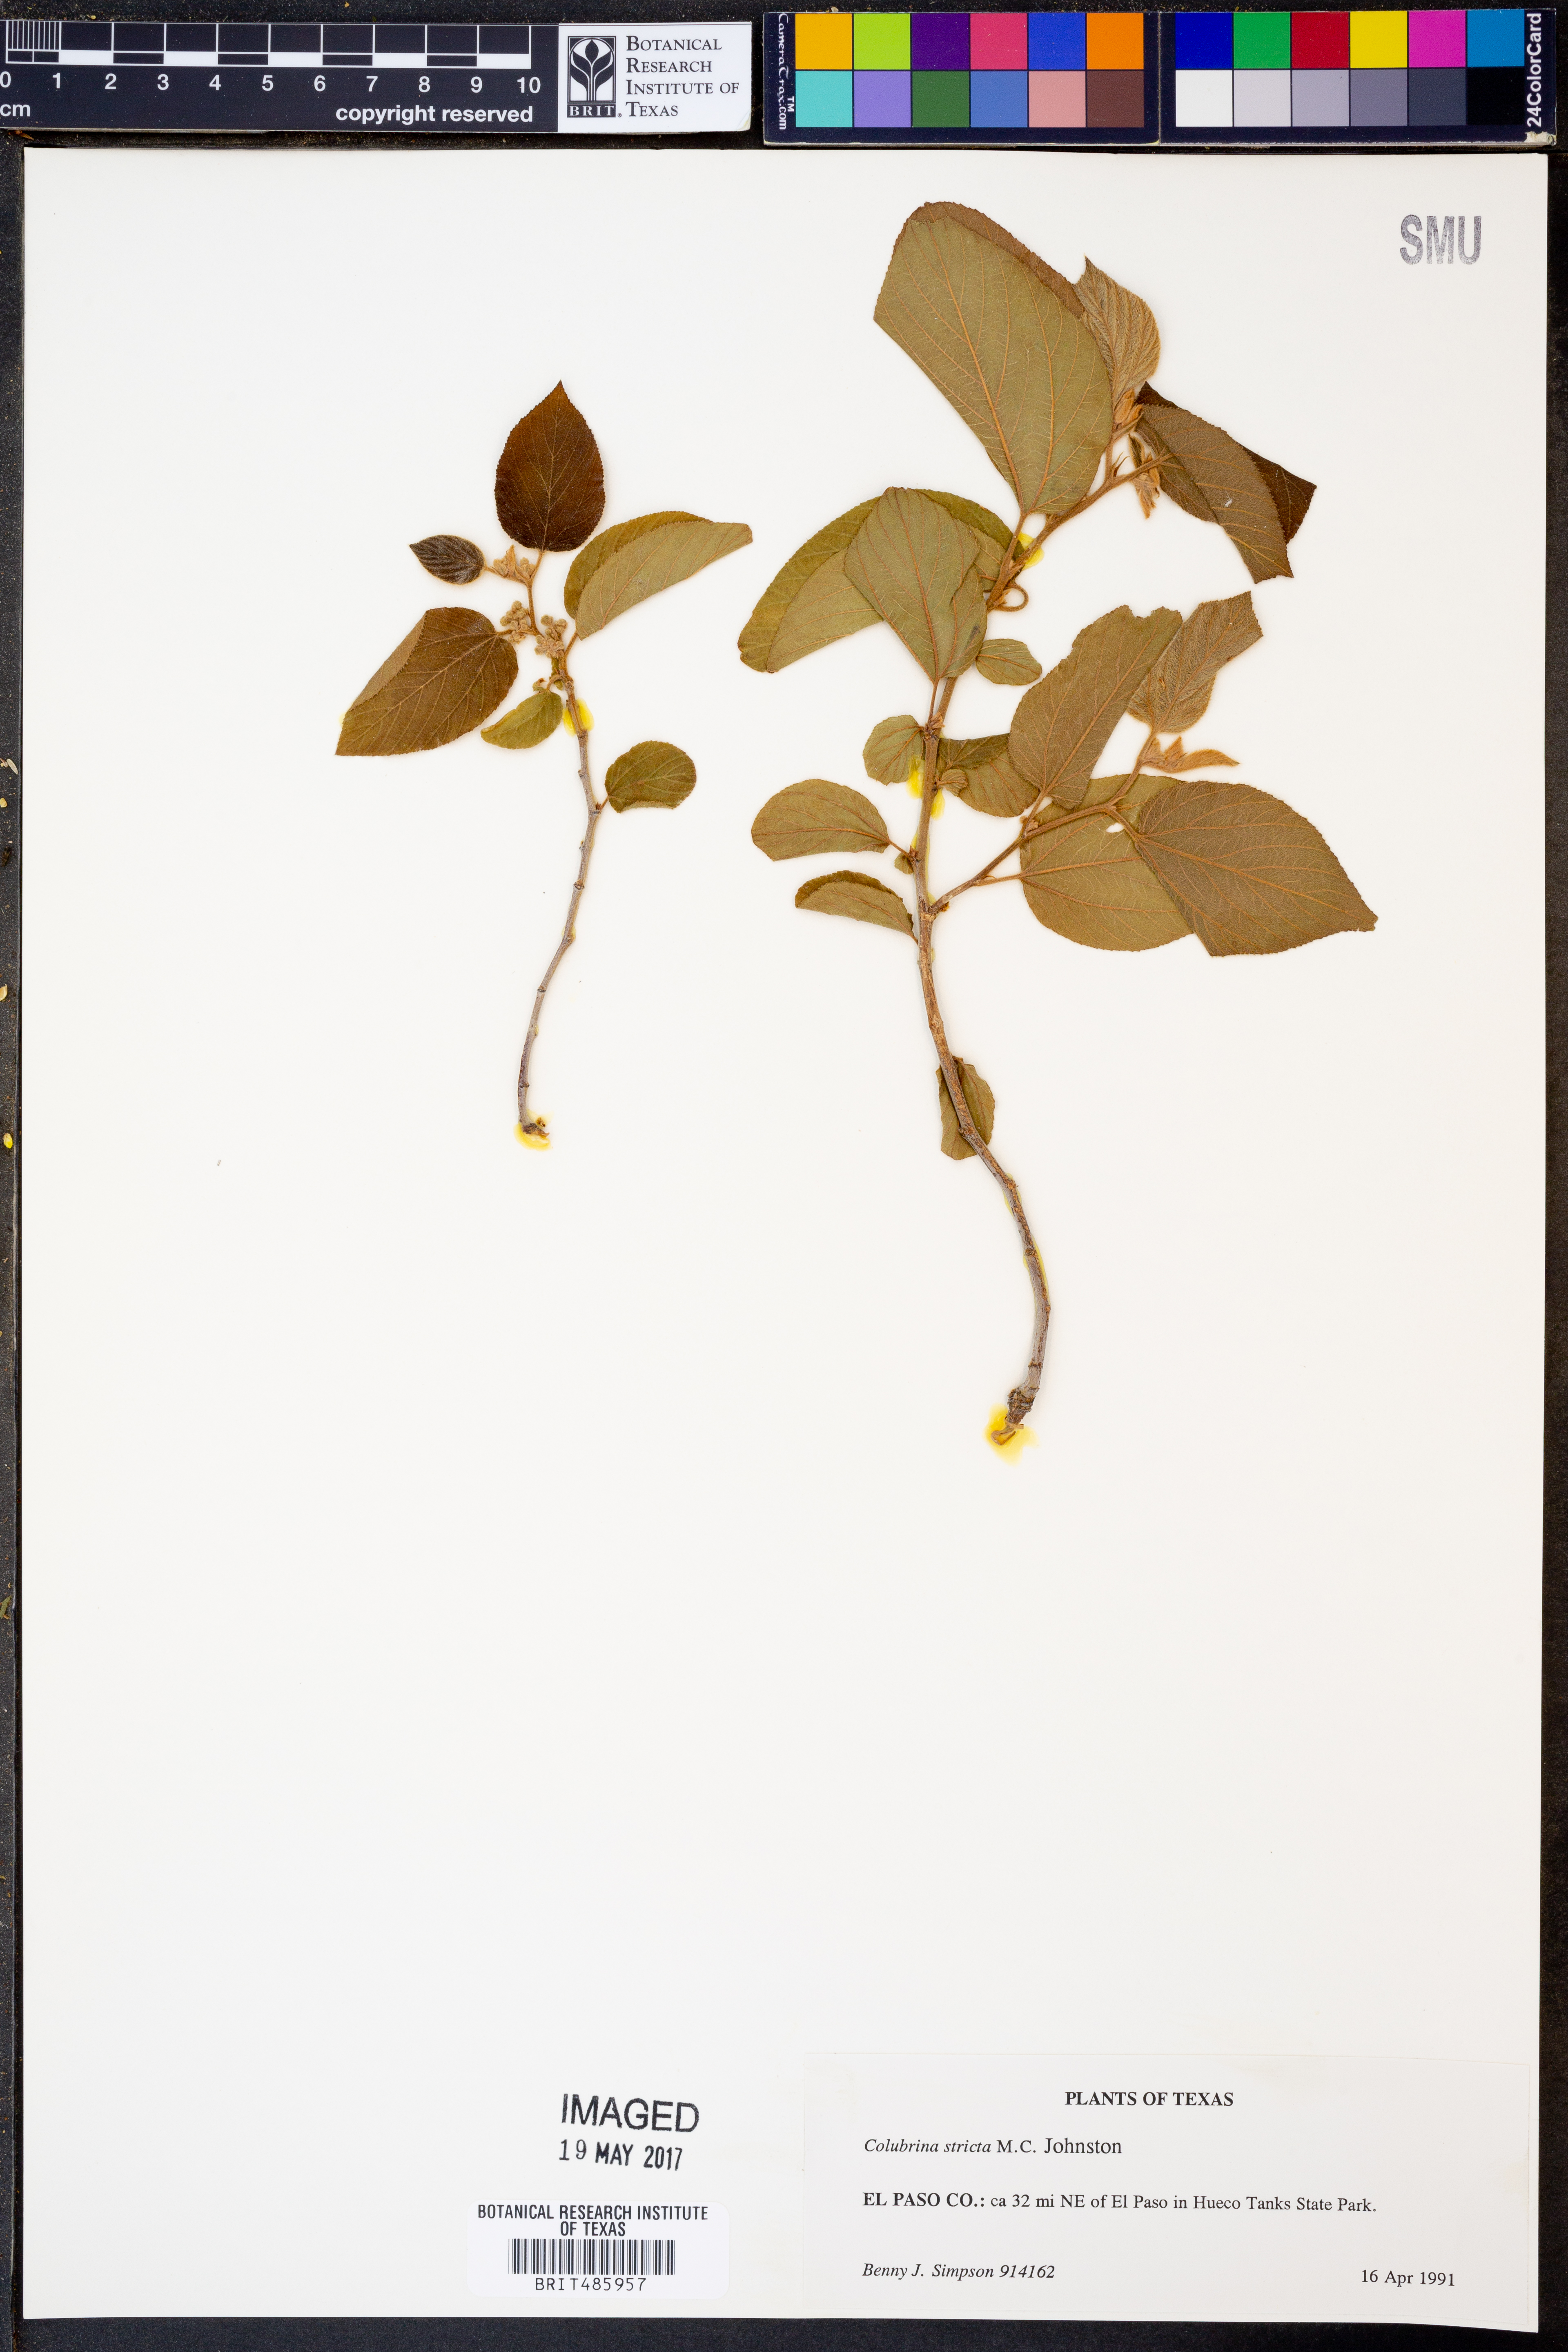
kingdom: Plantae
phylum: Tracheophyta
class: Magnoliopsida
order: Rosales
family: Rhamnaceae
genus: Colubrina
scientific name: Colubrina stricta
